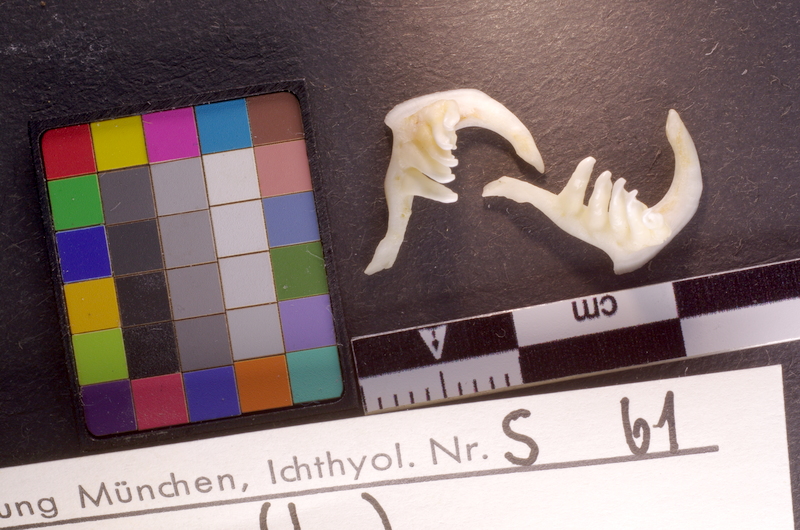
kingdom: Animalia
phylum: Chordata
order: Cypriniformes
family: Cyprinidae
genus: Leuciscus
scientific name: Leuciscus leuciscus
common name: Dace
